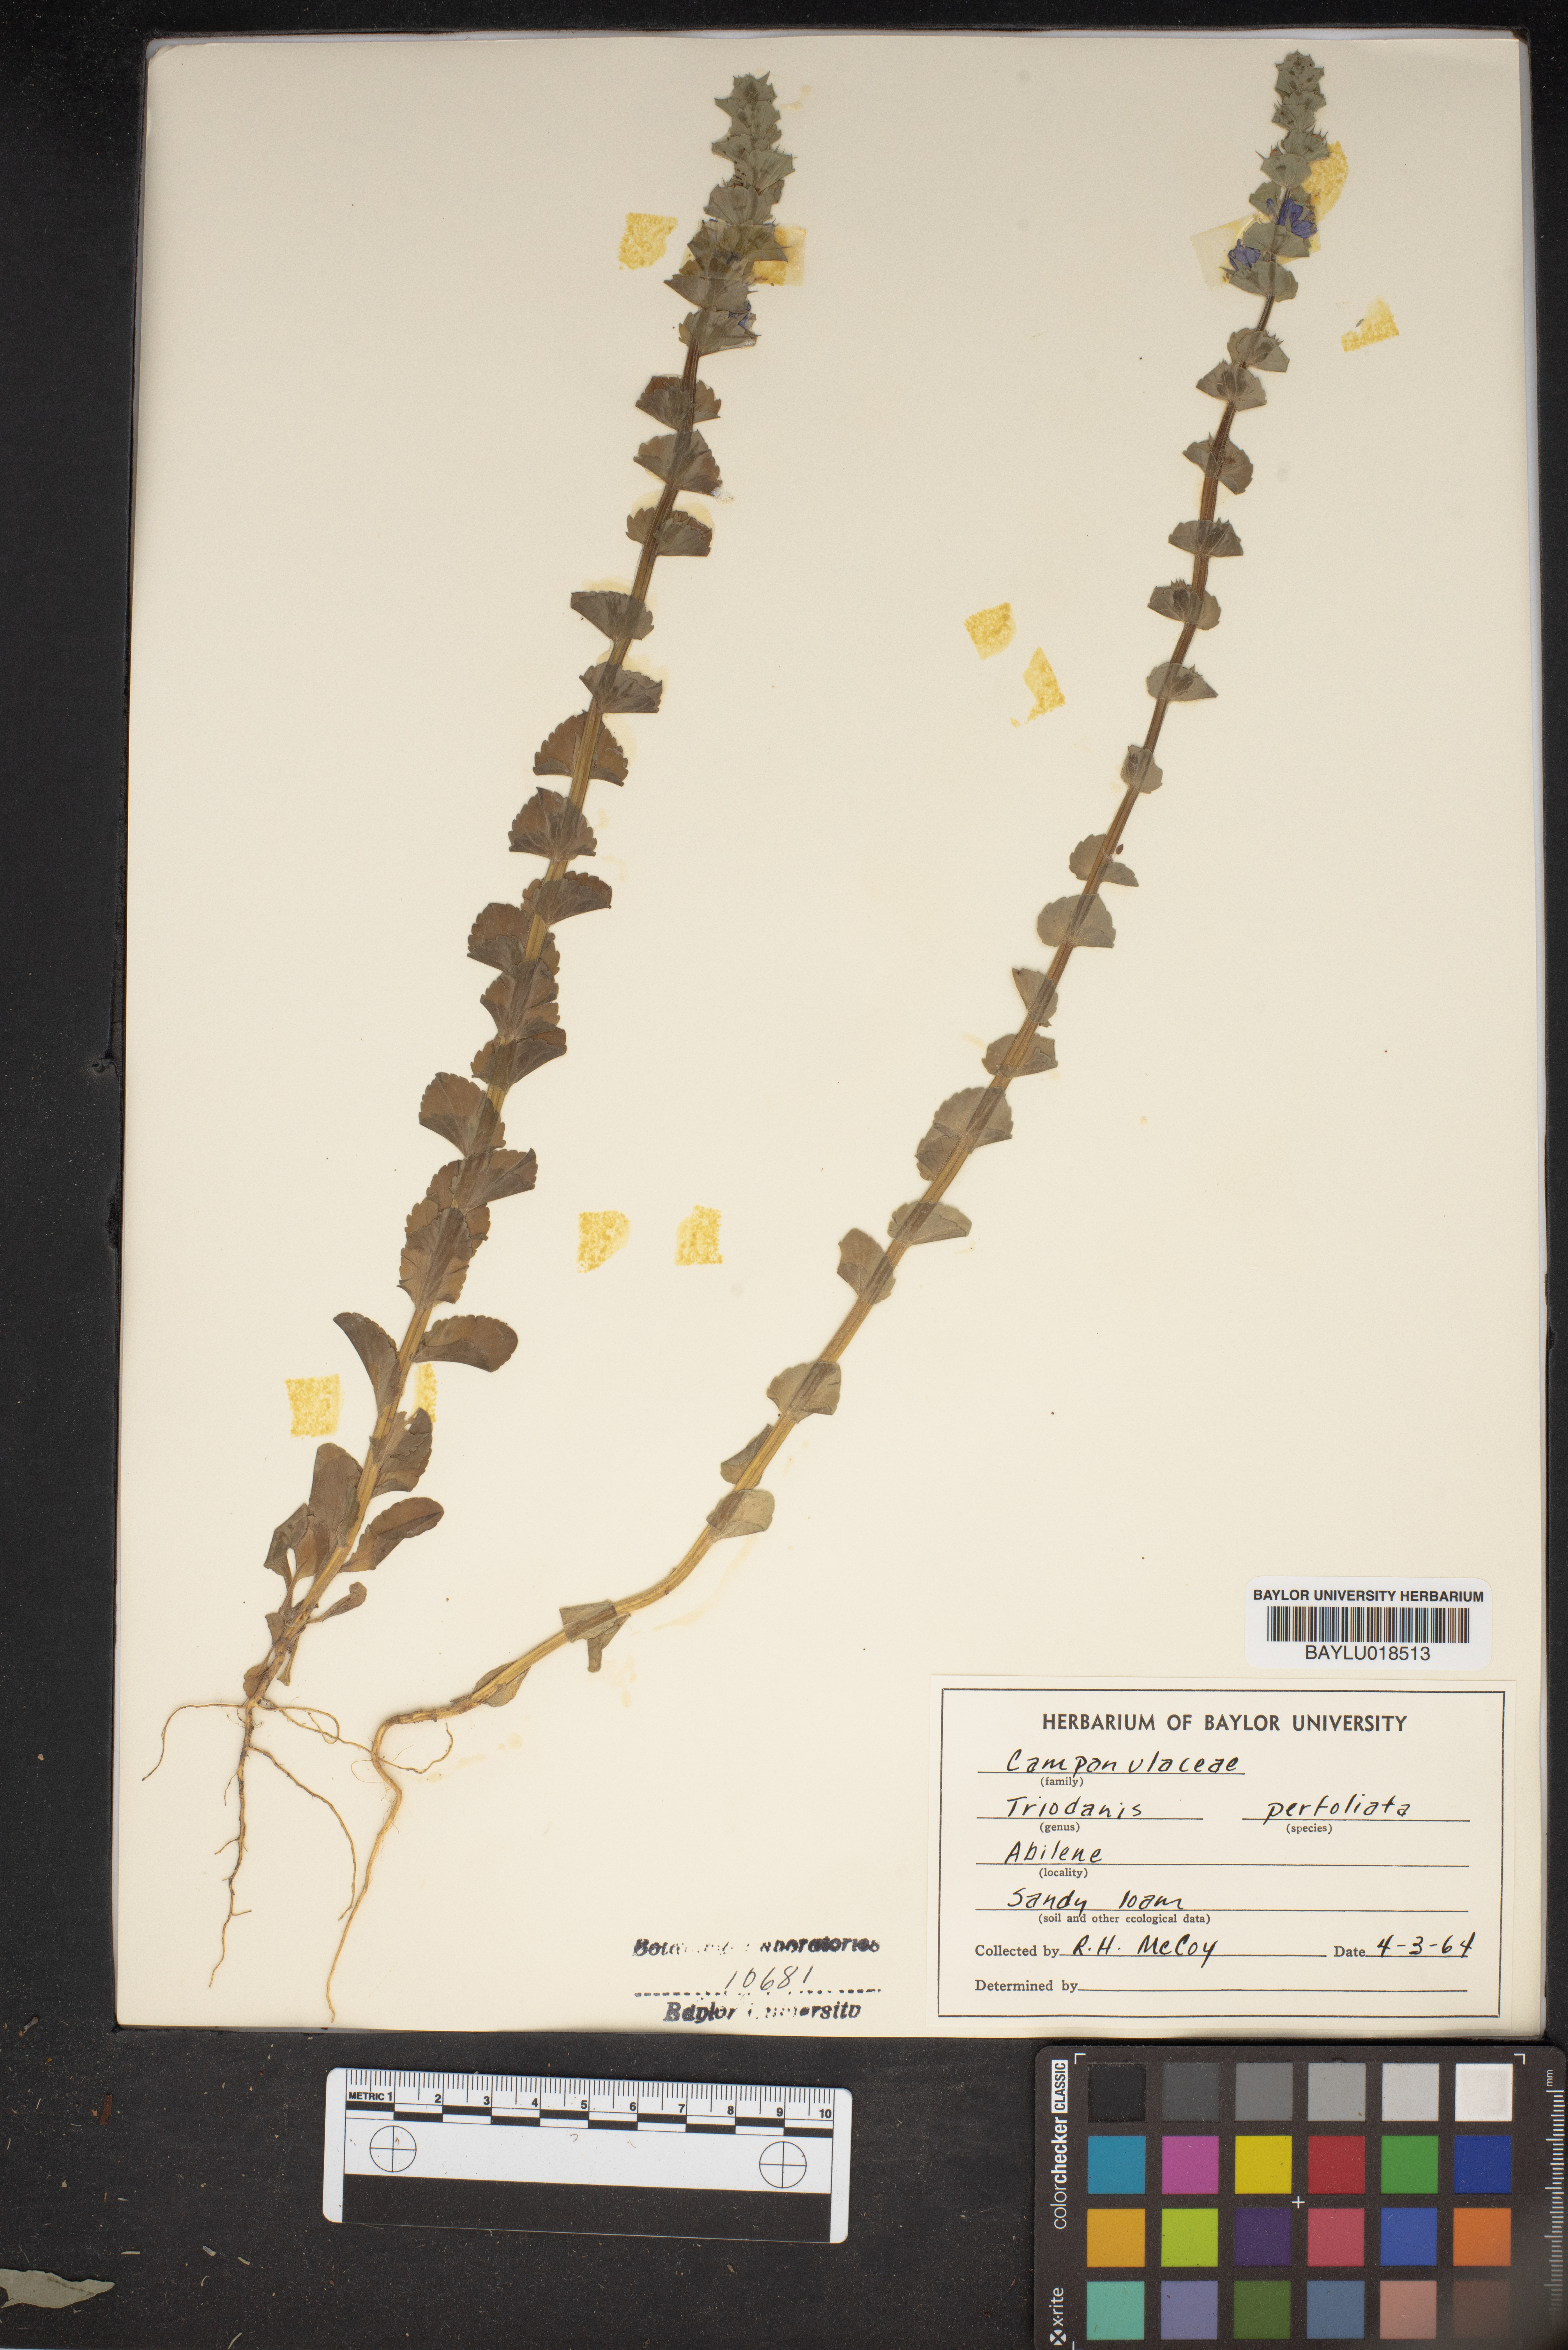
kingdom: Plantae
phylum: Tracheophyta
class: Magnoliopsida
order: Asterales
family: Campanulaceae
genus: Triodanis
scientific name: Triodanis perfoliata
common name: Clasping venus' looking-glass
